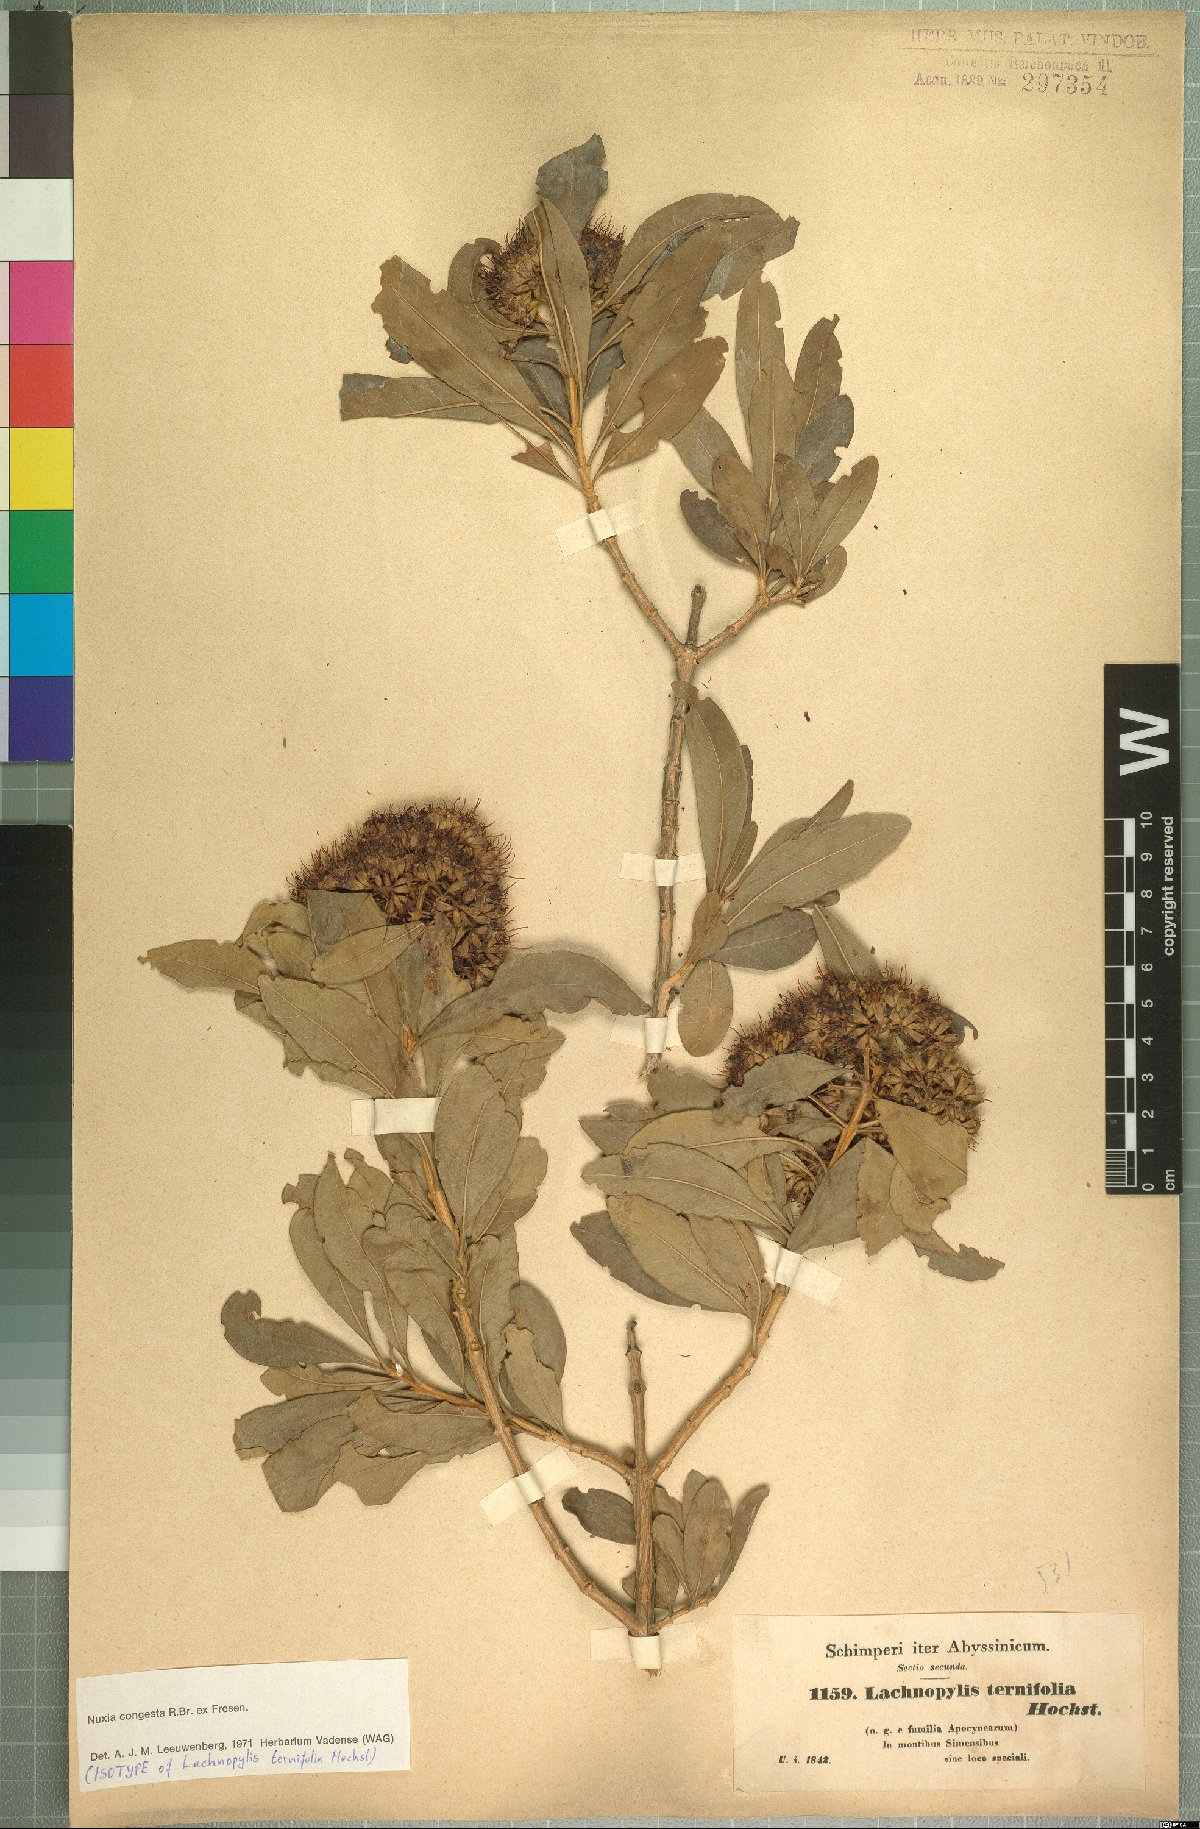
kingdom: Plantae
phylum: Tracheophyta
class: Magnoliopsida
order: Lamiales
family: Stilbaceae
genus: Nuxia
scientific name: Nuxia congesta
